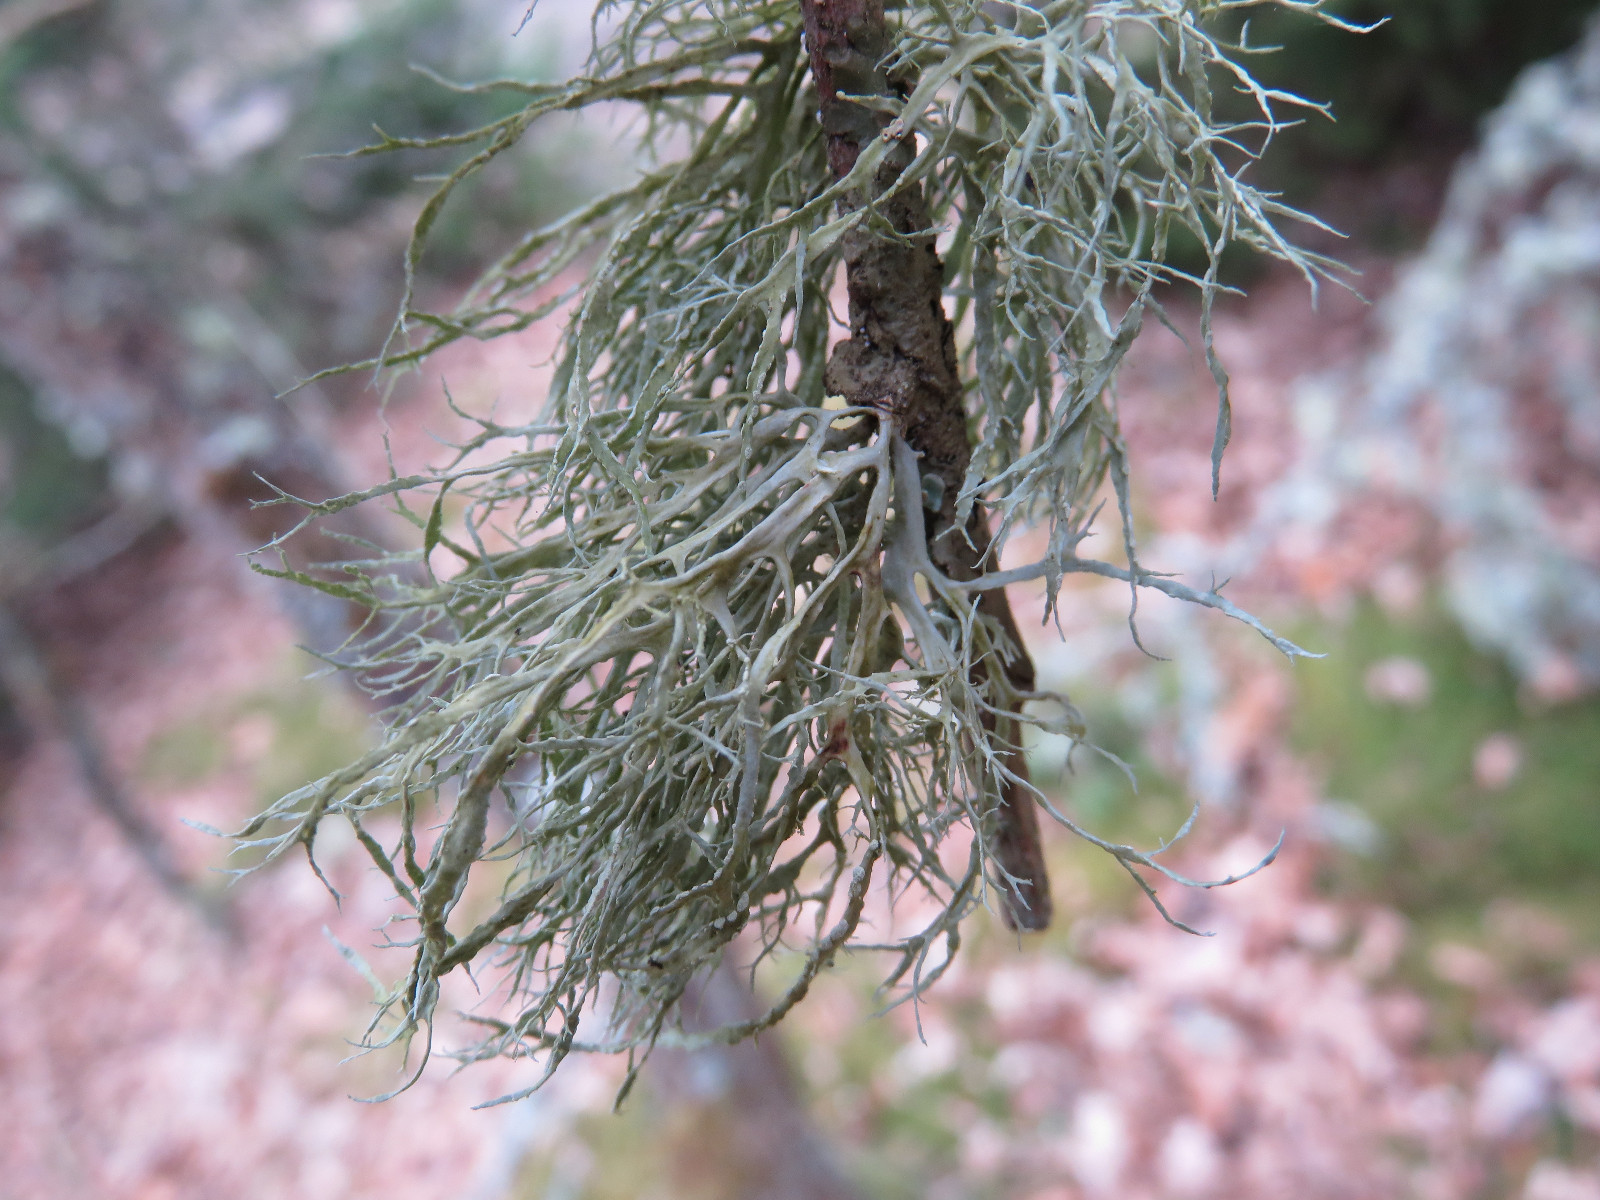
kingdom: Fungi
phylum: Ascomycota
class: Lecanoromycetes
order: Lecanorales
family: Ramalinaceae
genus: Ramalina
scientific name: Ramalina farinacea
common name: melet grenlav
